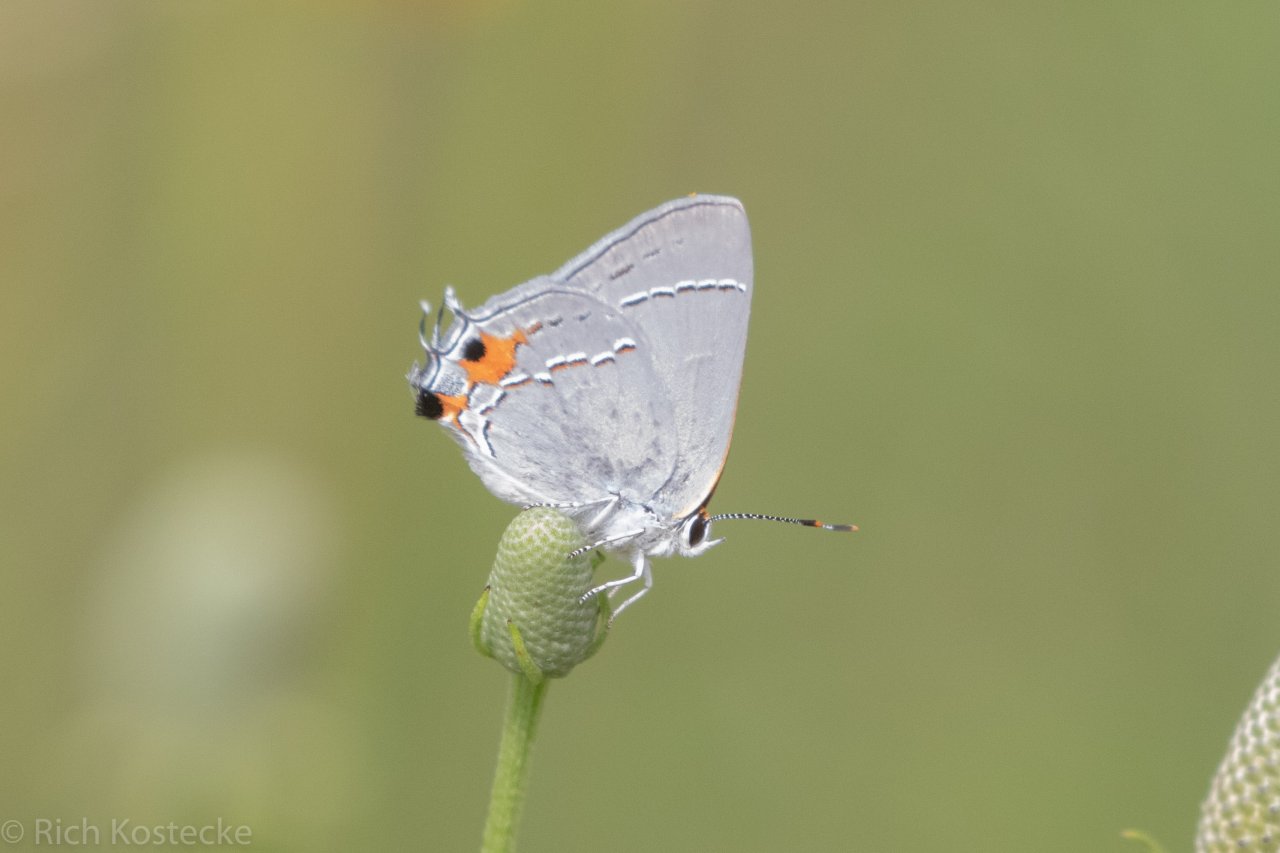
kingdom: Animalia
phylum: Arthropoda
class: Insecta
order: Lepidoptera
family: Lycaenidae
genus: Strymon
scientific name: Strymon melinus
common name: Gray Hairstreak
